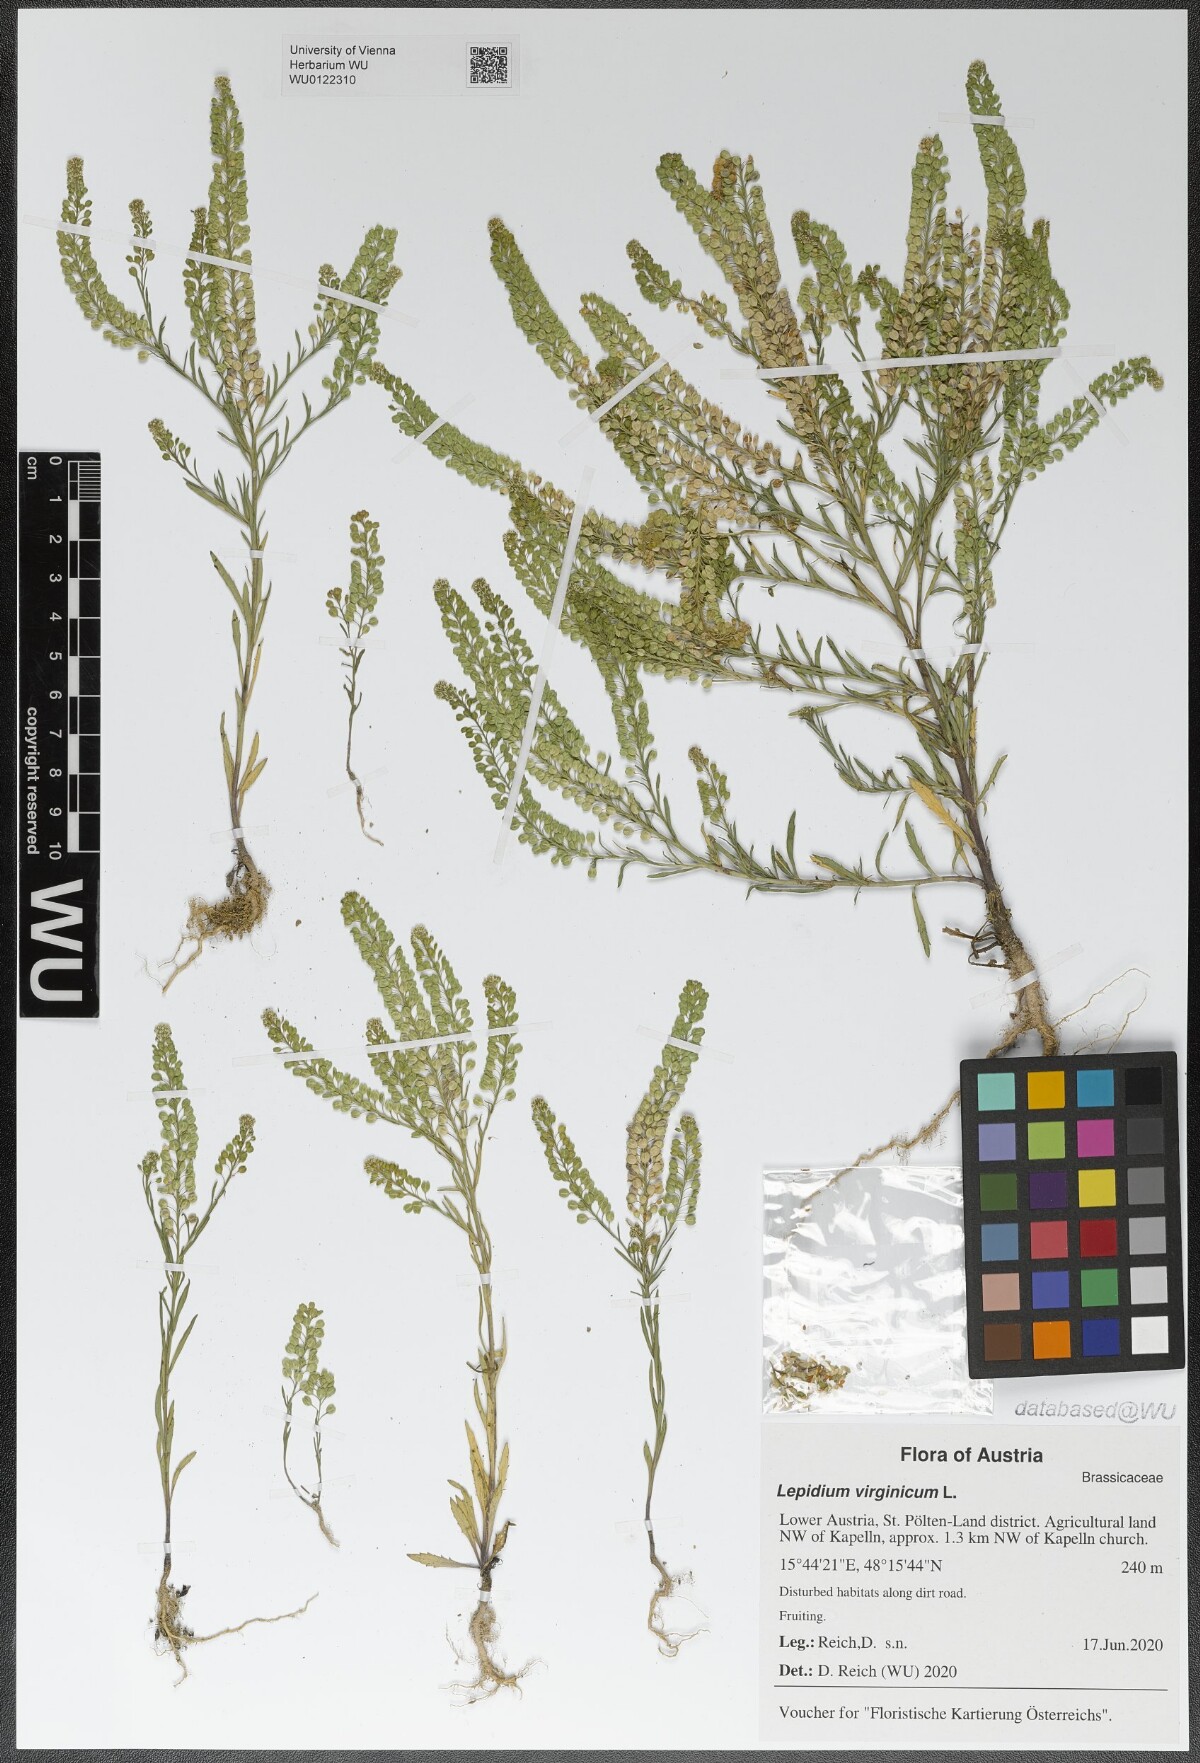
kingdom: Plantae
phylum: Tracheophyta
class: Magnoliopsida
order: Brassicales
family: Brassicaceae
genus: Lepidium
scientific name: Lepidium virginicum
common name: Least pepperwort
